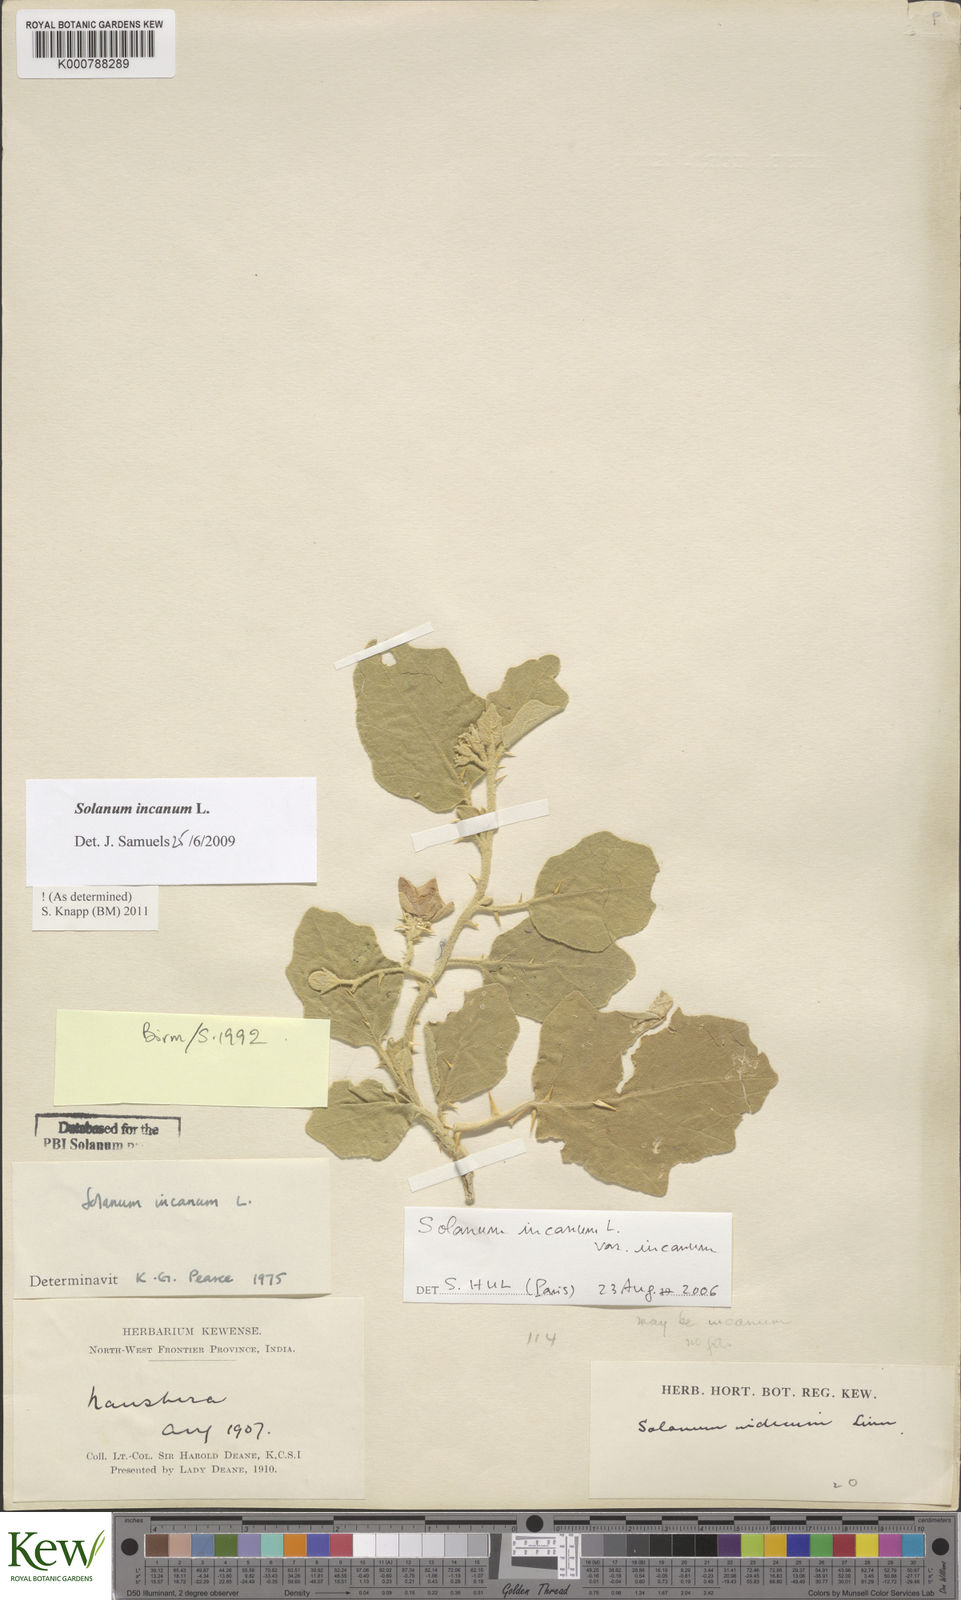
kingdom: Plantae
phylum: Tracheophyta
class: Magnoliopsida
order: Solanales
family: Solanaceae
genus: Solanum
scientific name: Solanum incanum
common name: Bitter apple
